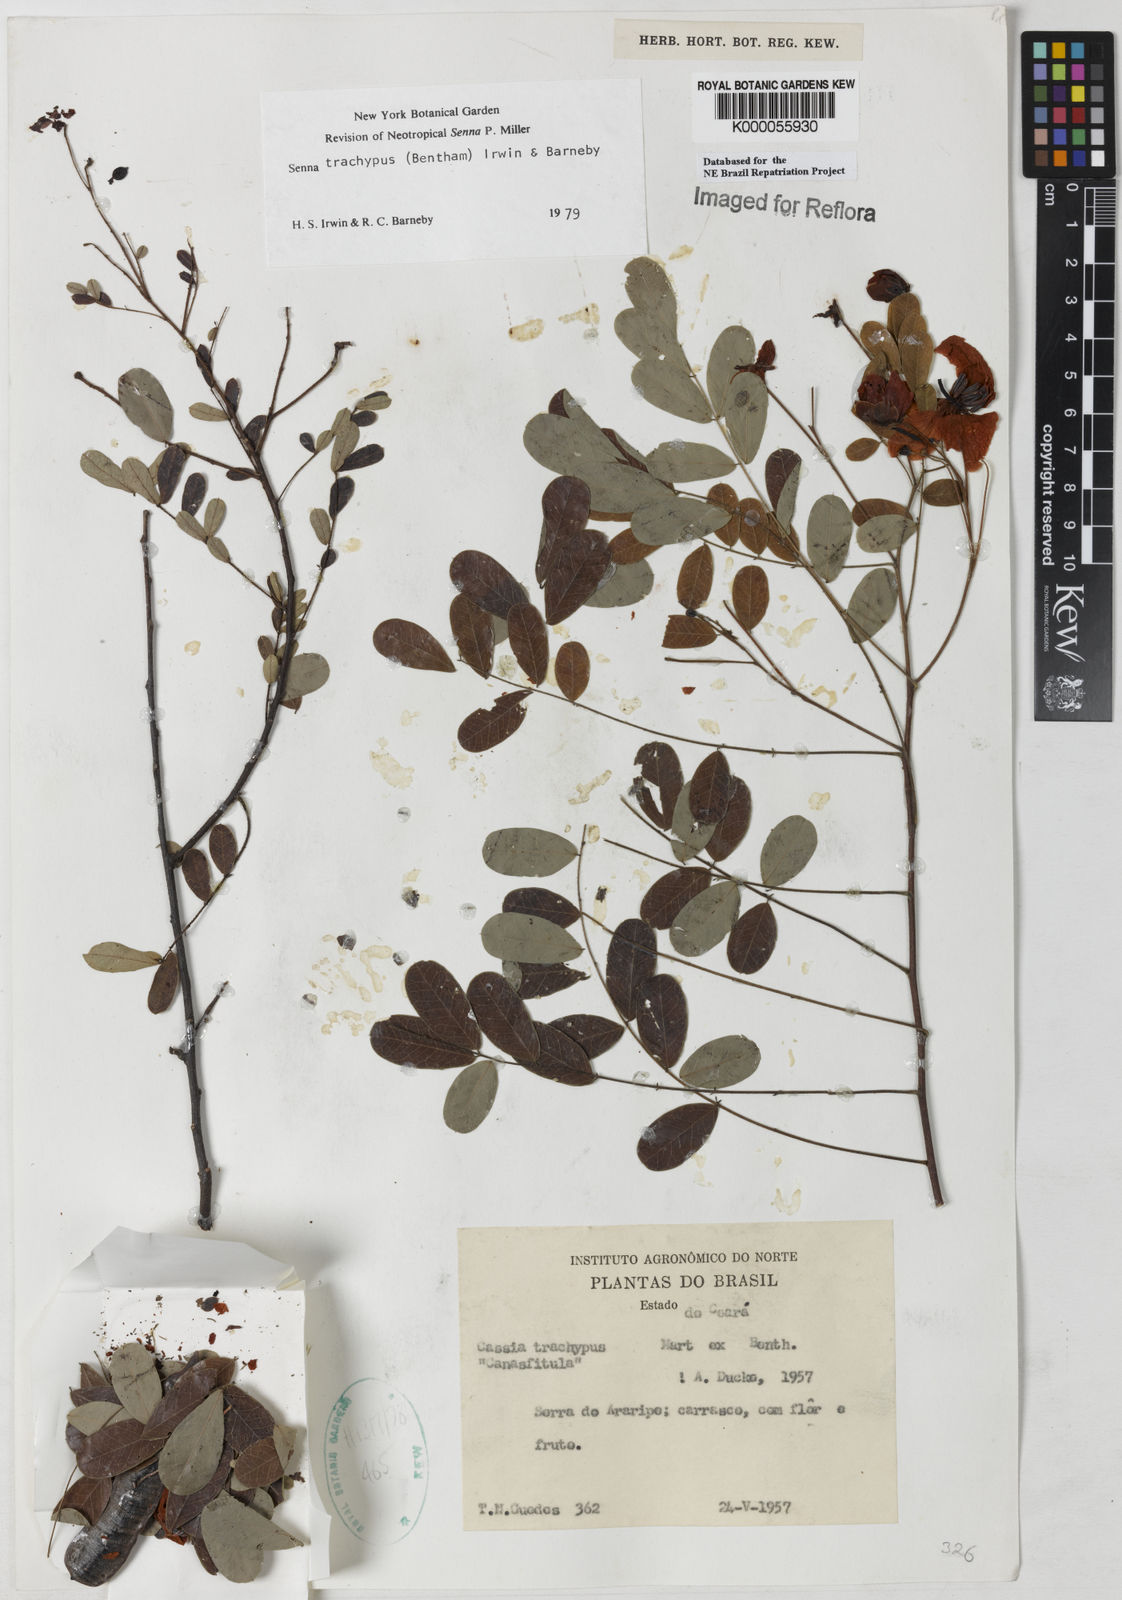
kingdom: Plantae
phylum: Tracheophyta
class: Magnoliopsida
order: Fabales
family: Fabaceae
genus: Senna
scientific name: Senna trachypus
